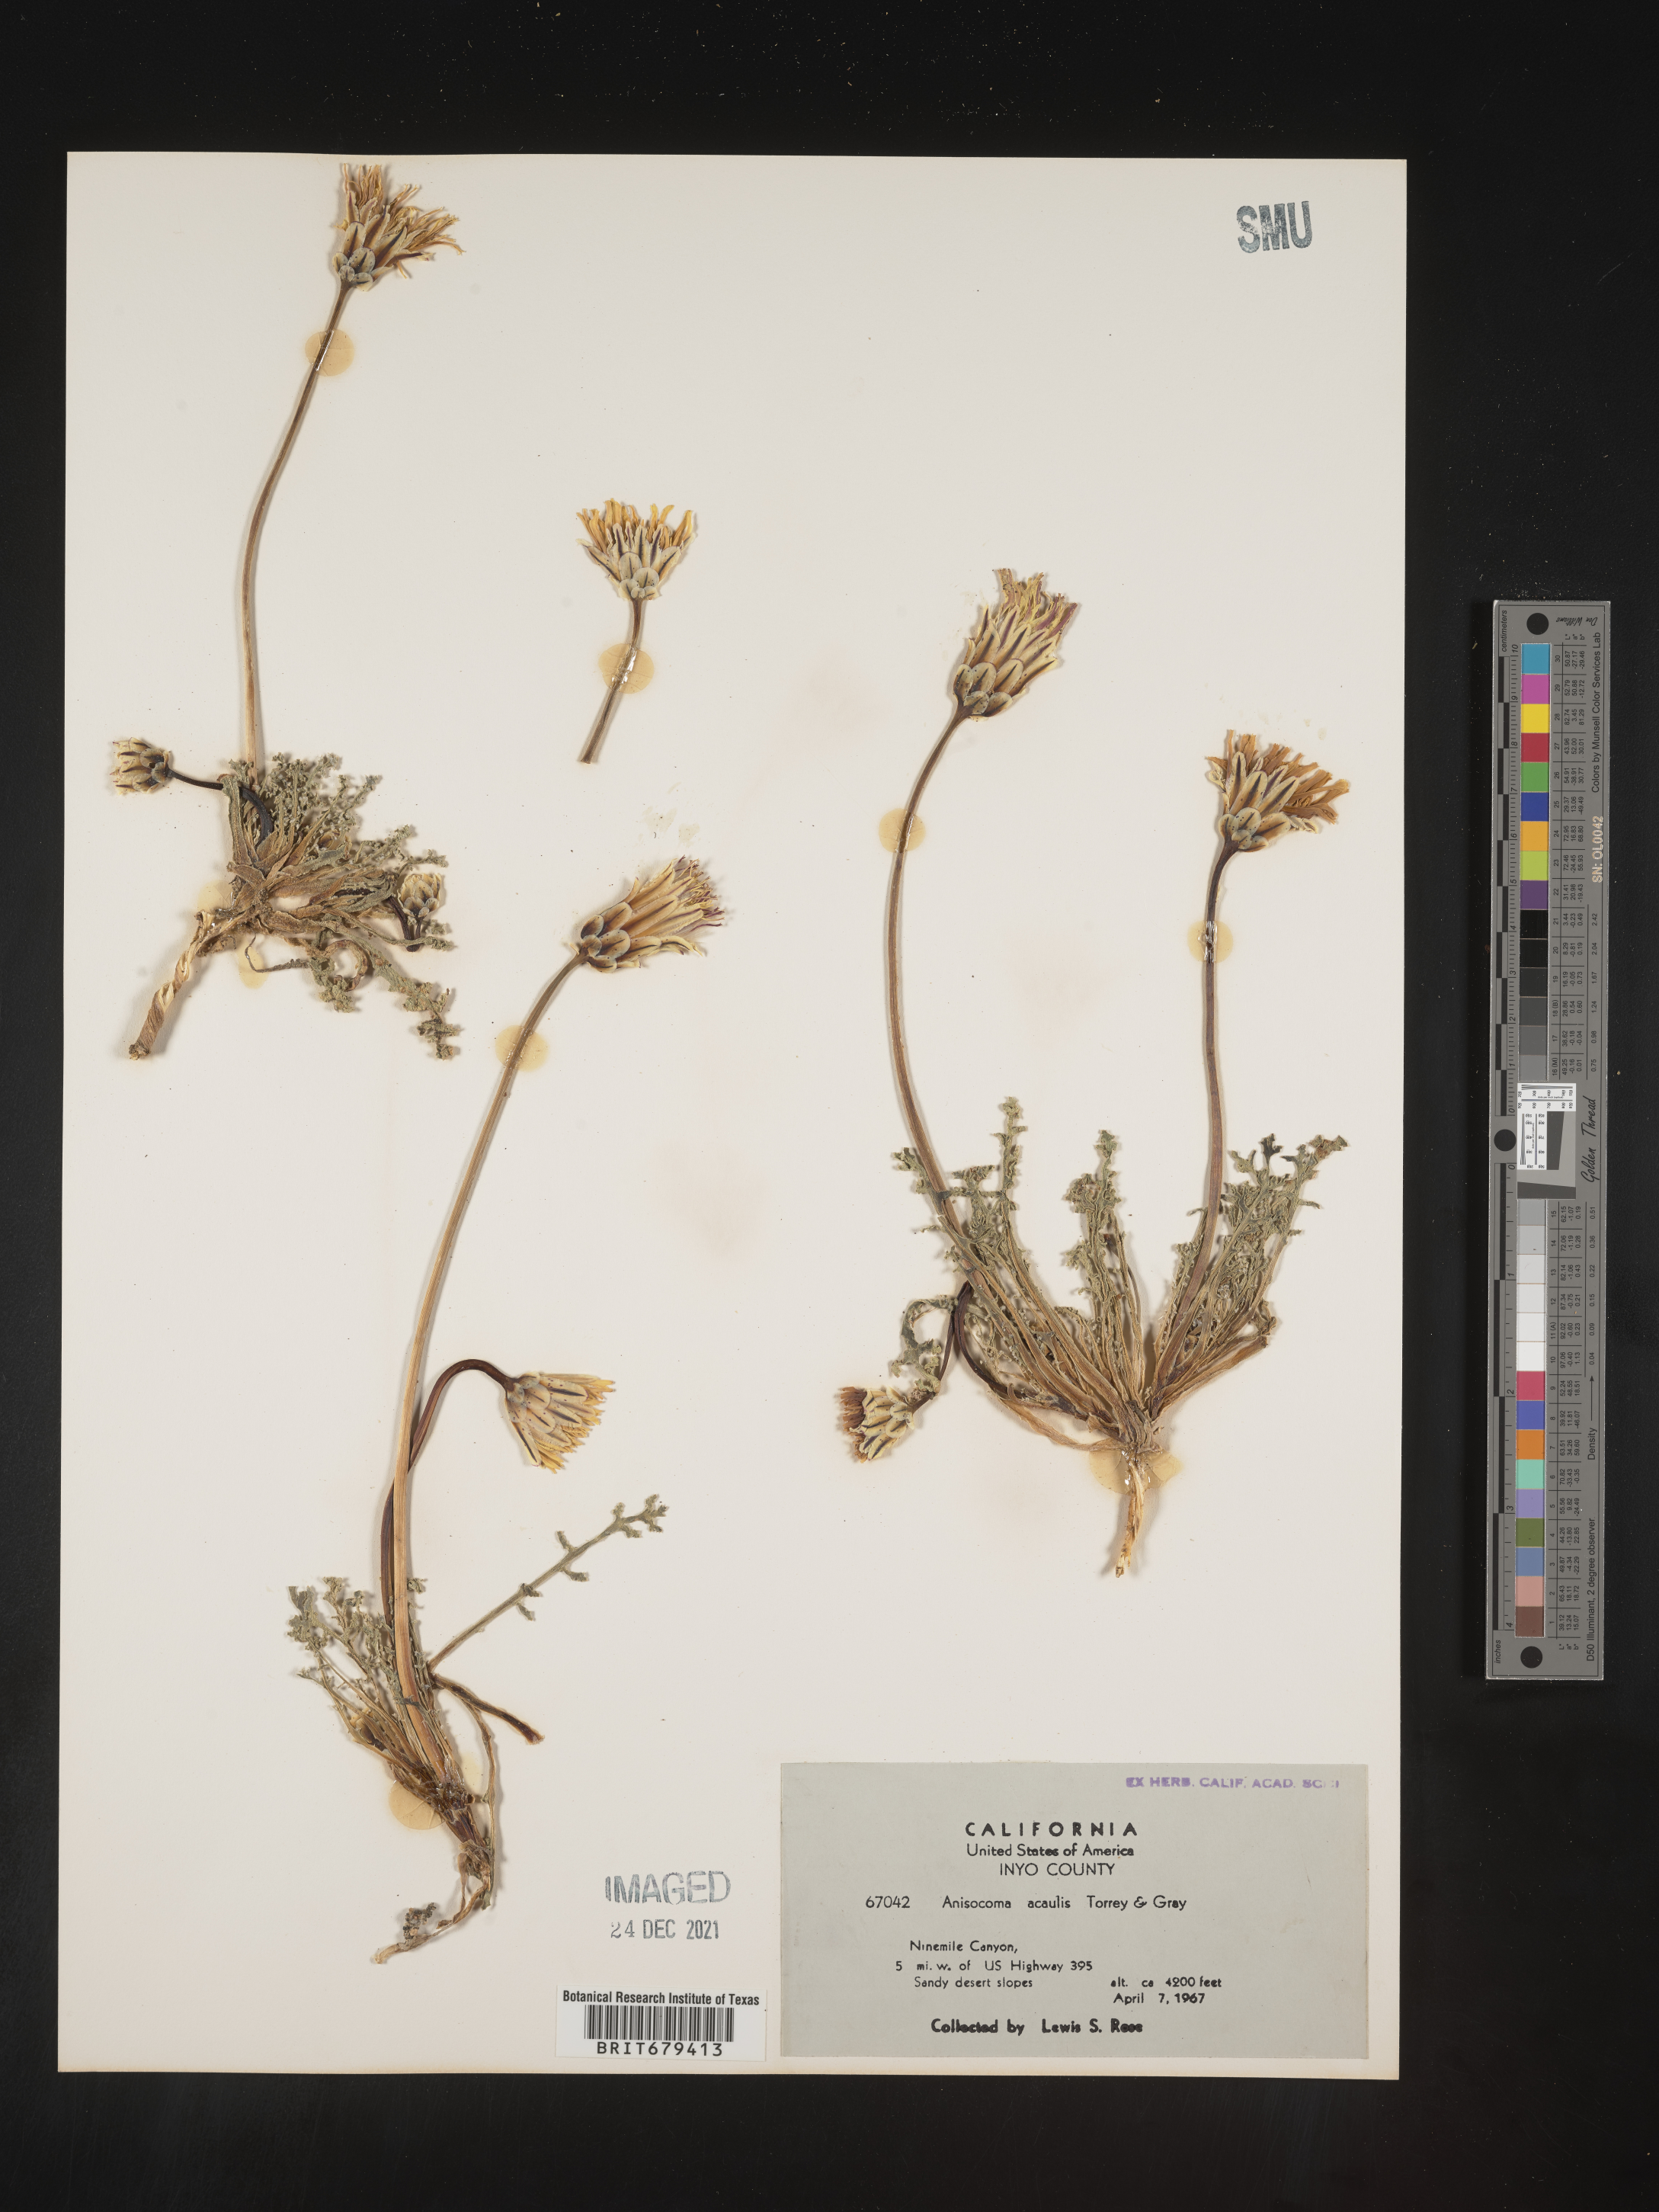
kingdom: Plantae
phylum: Tracheophyta
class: Magnoliopsida
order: Asterales
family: Asteraceae
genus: Anisocoma
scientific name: Anisocoma
